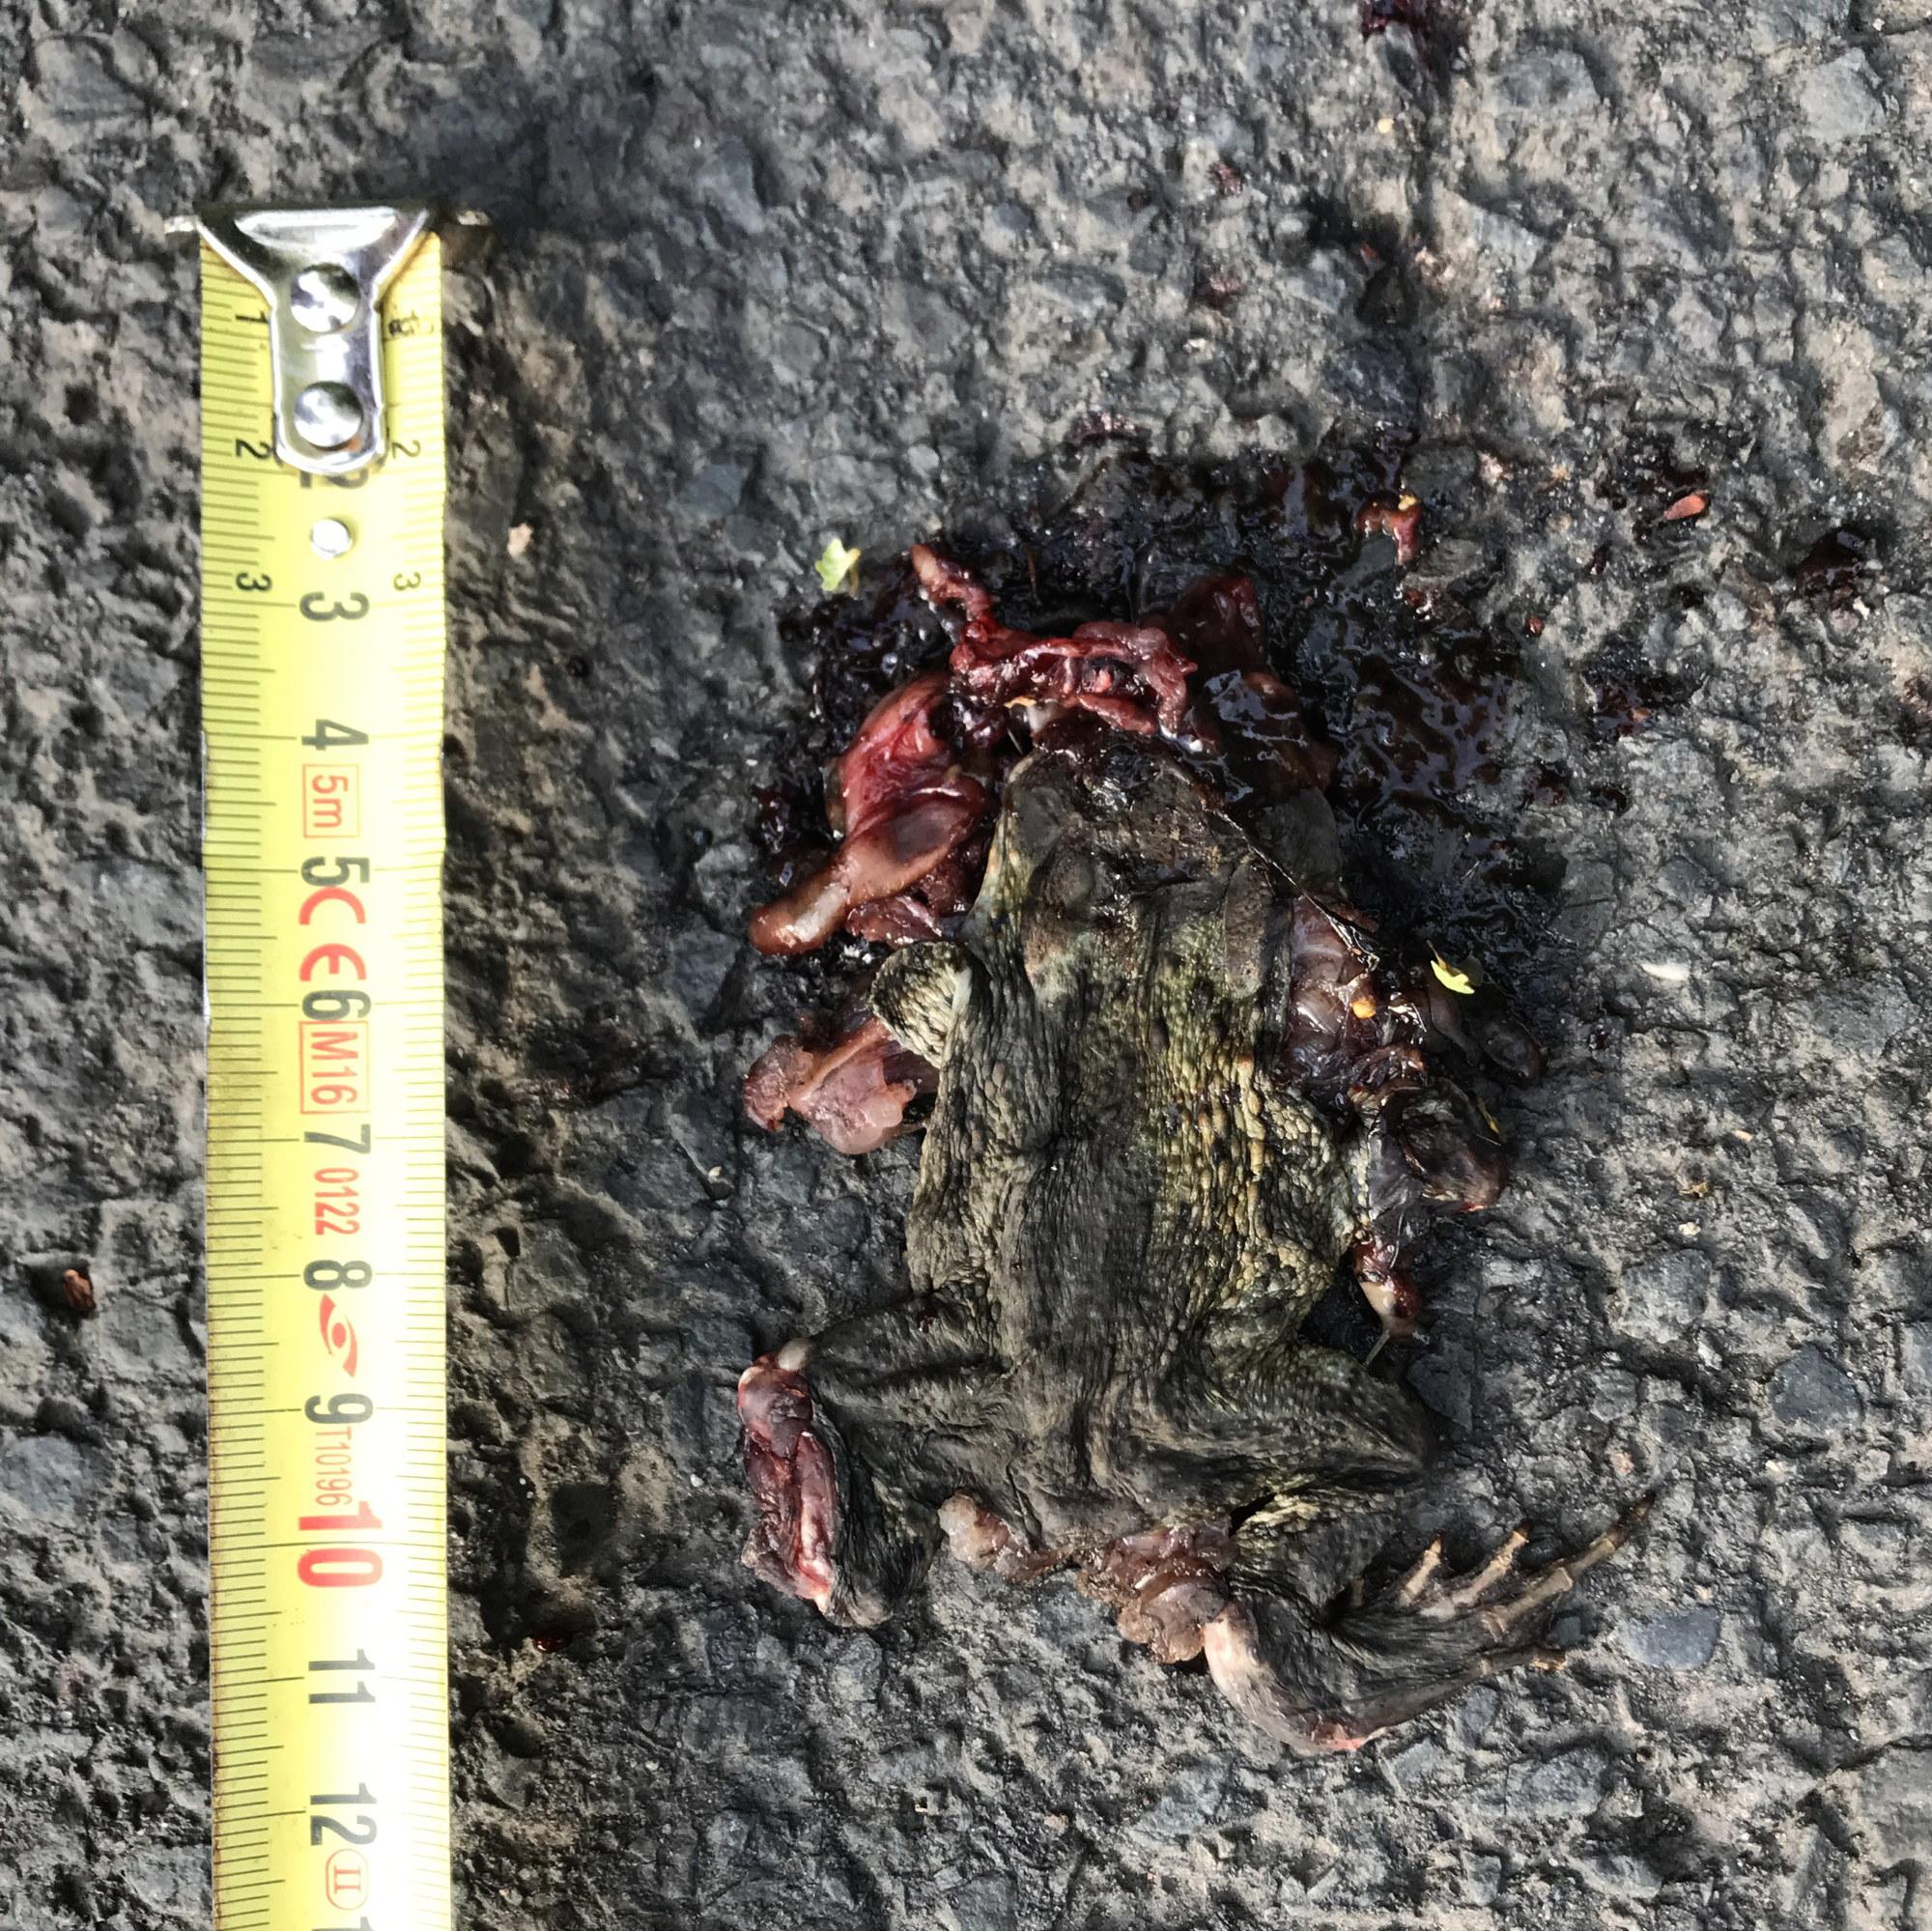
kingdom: Animalia
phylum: Chordata
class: Amphibia
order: Anura
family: Bufonidae
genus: Bufo
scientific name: Bufo bufo
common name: Common toad
